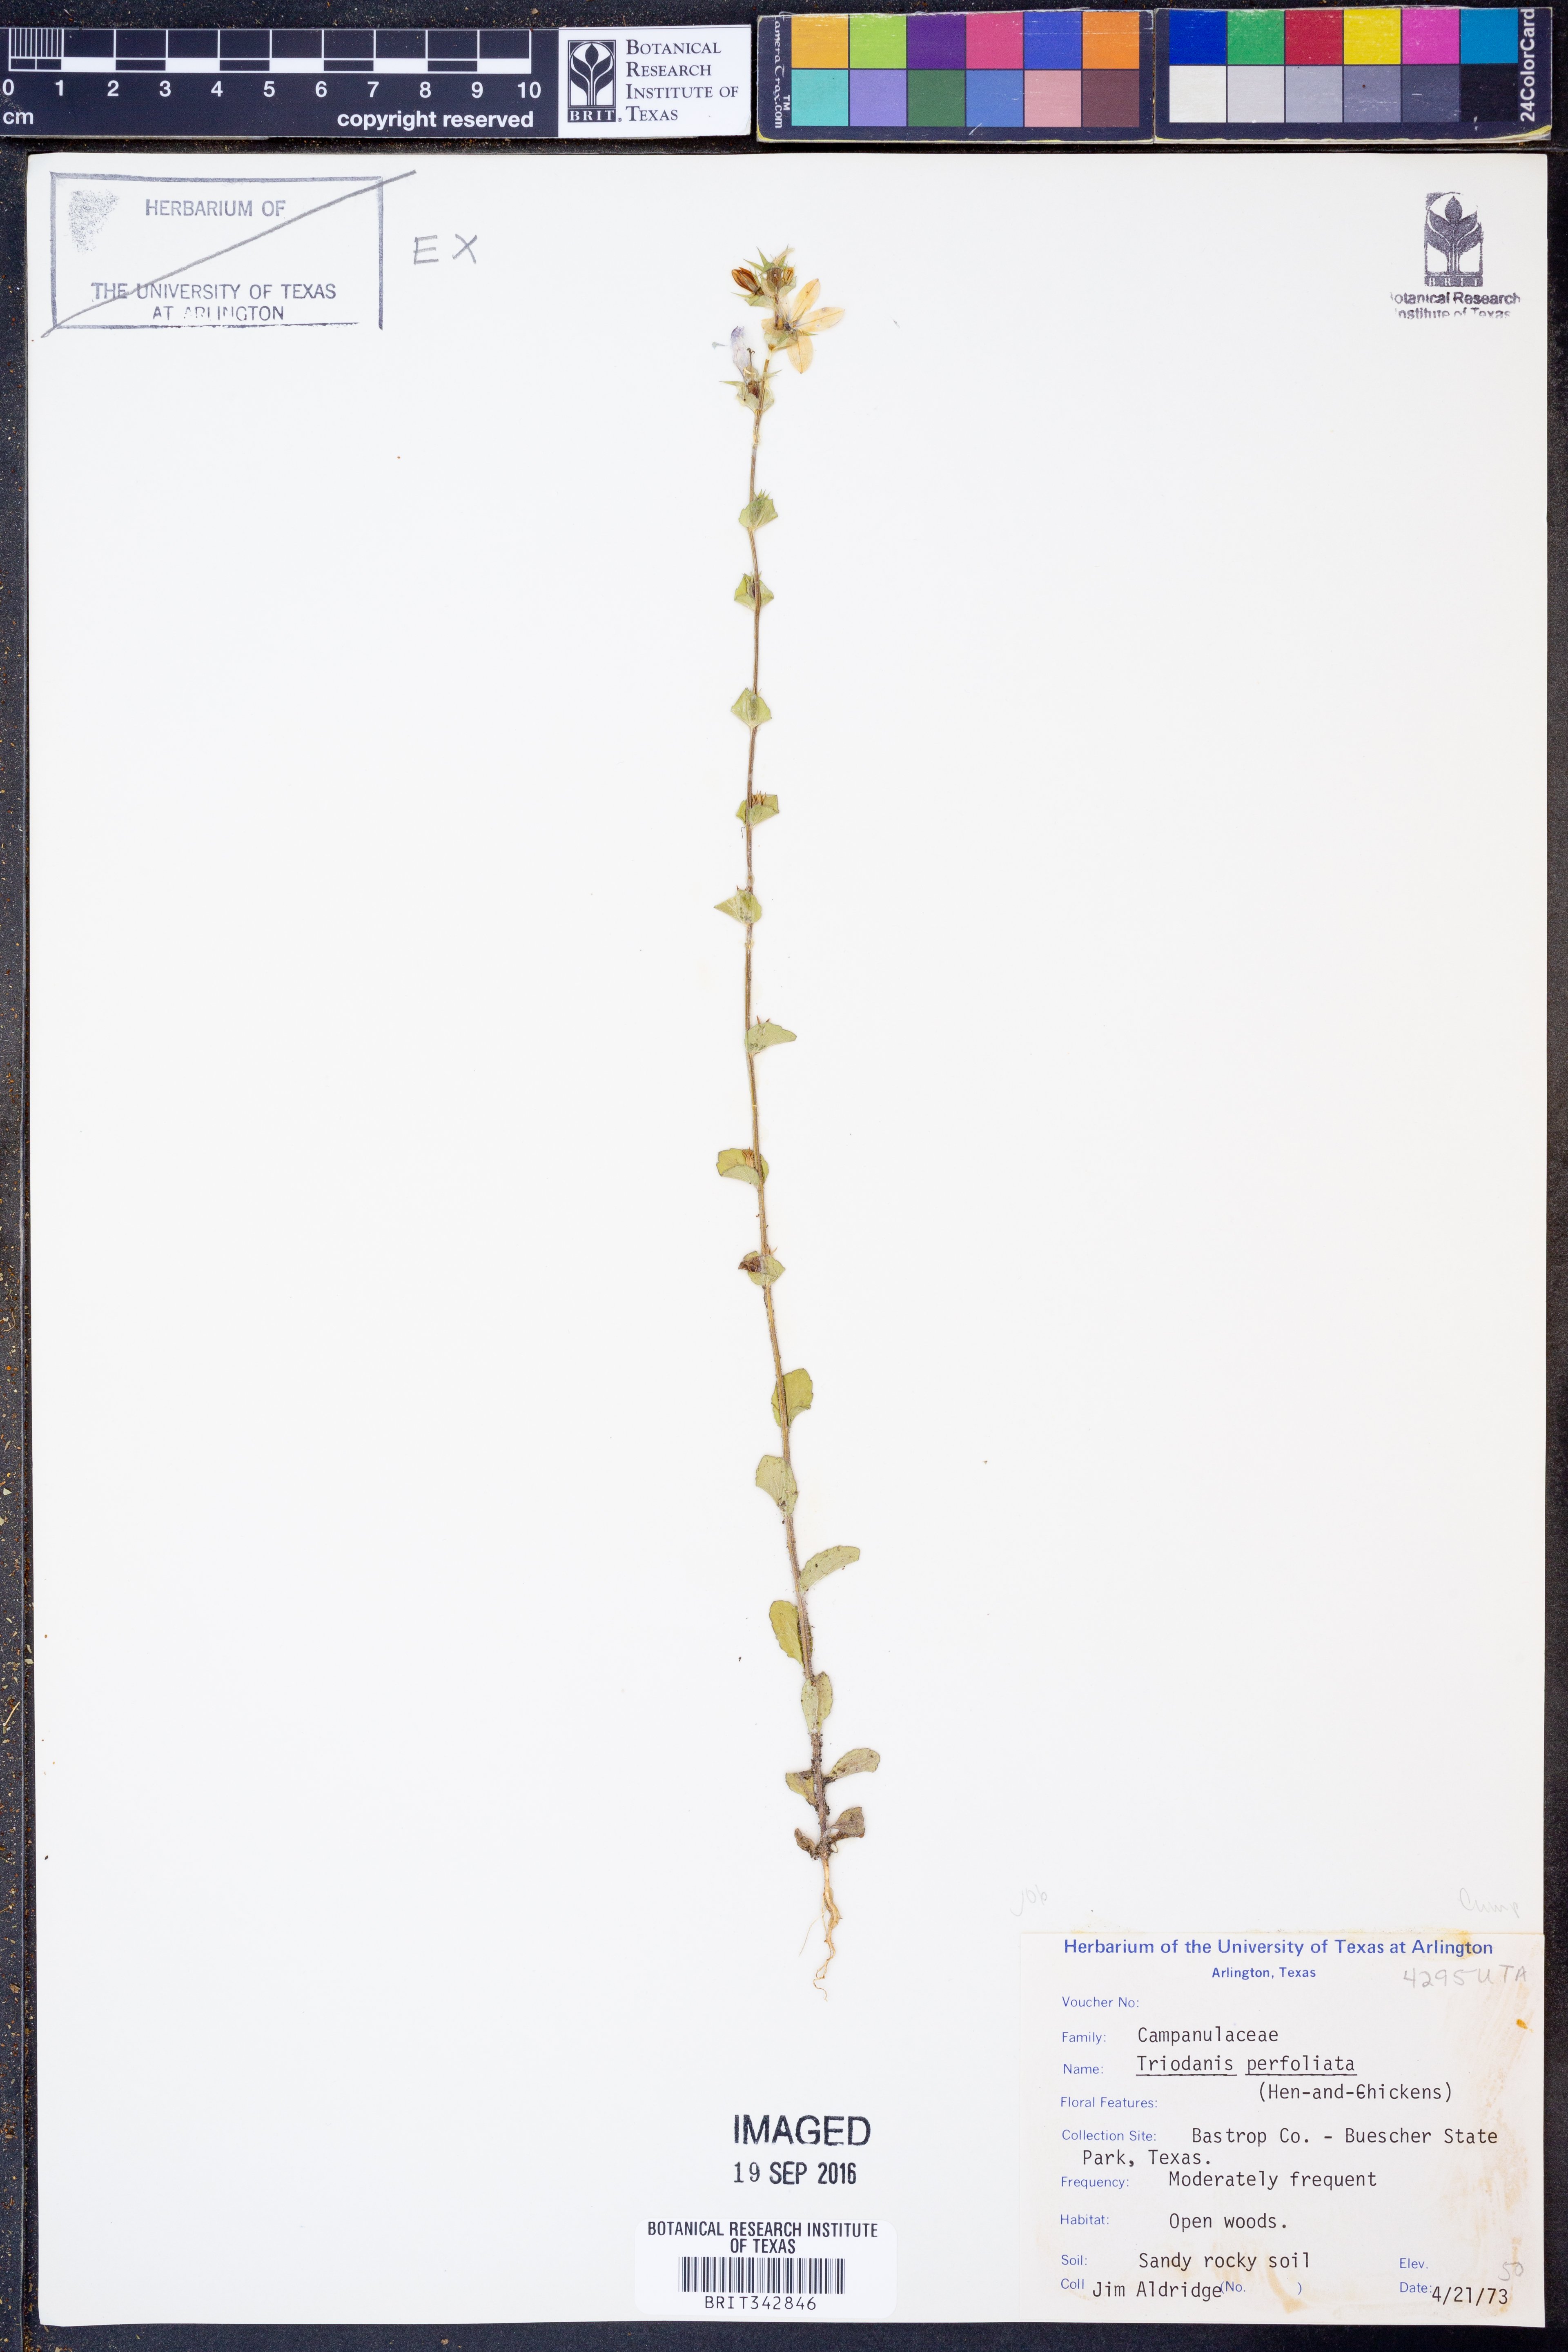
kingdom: Plantae
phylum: Tracheophyta
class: Magnoliopsida
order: Asterales
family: Campanulaceae
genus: Triodanis
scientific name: Triodanis perfoliata
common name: Clasping venus' looking-glass
